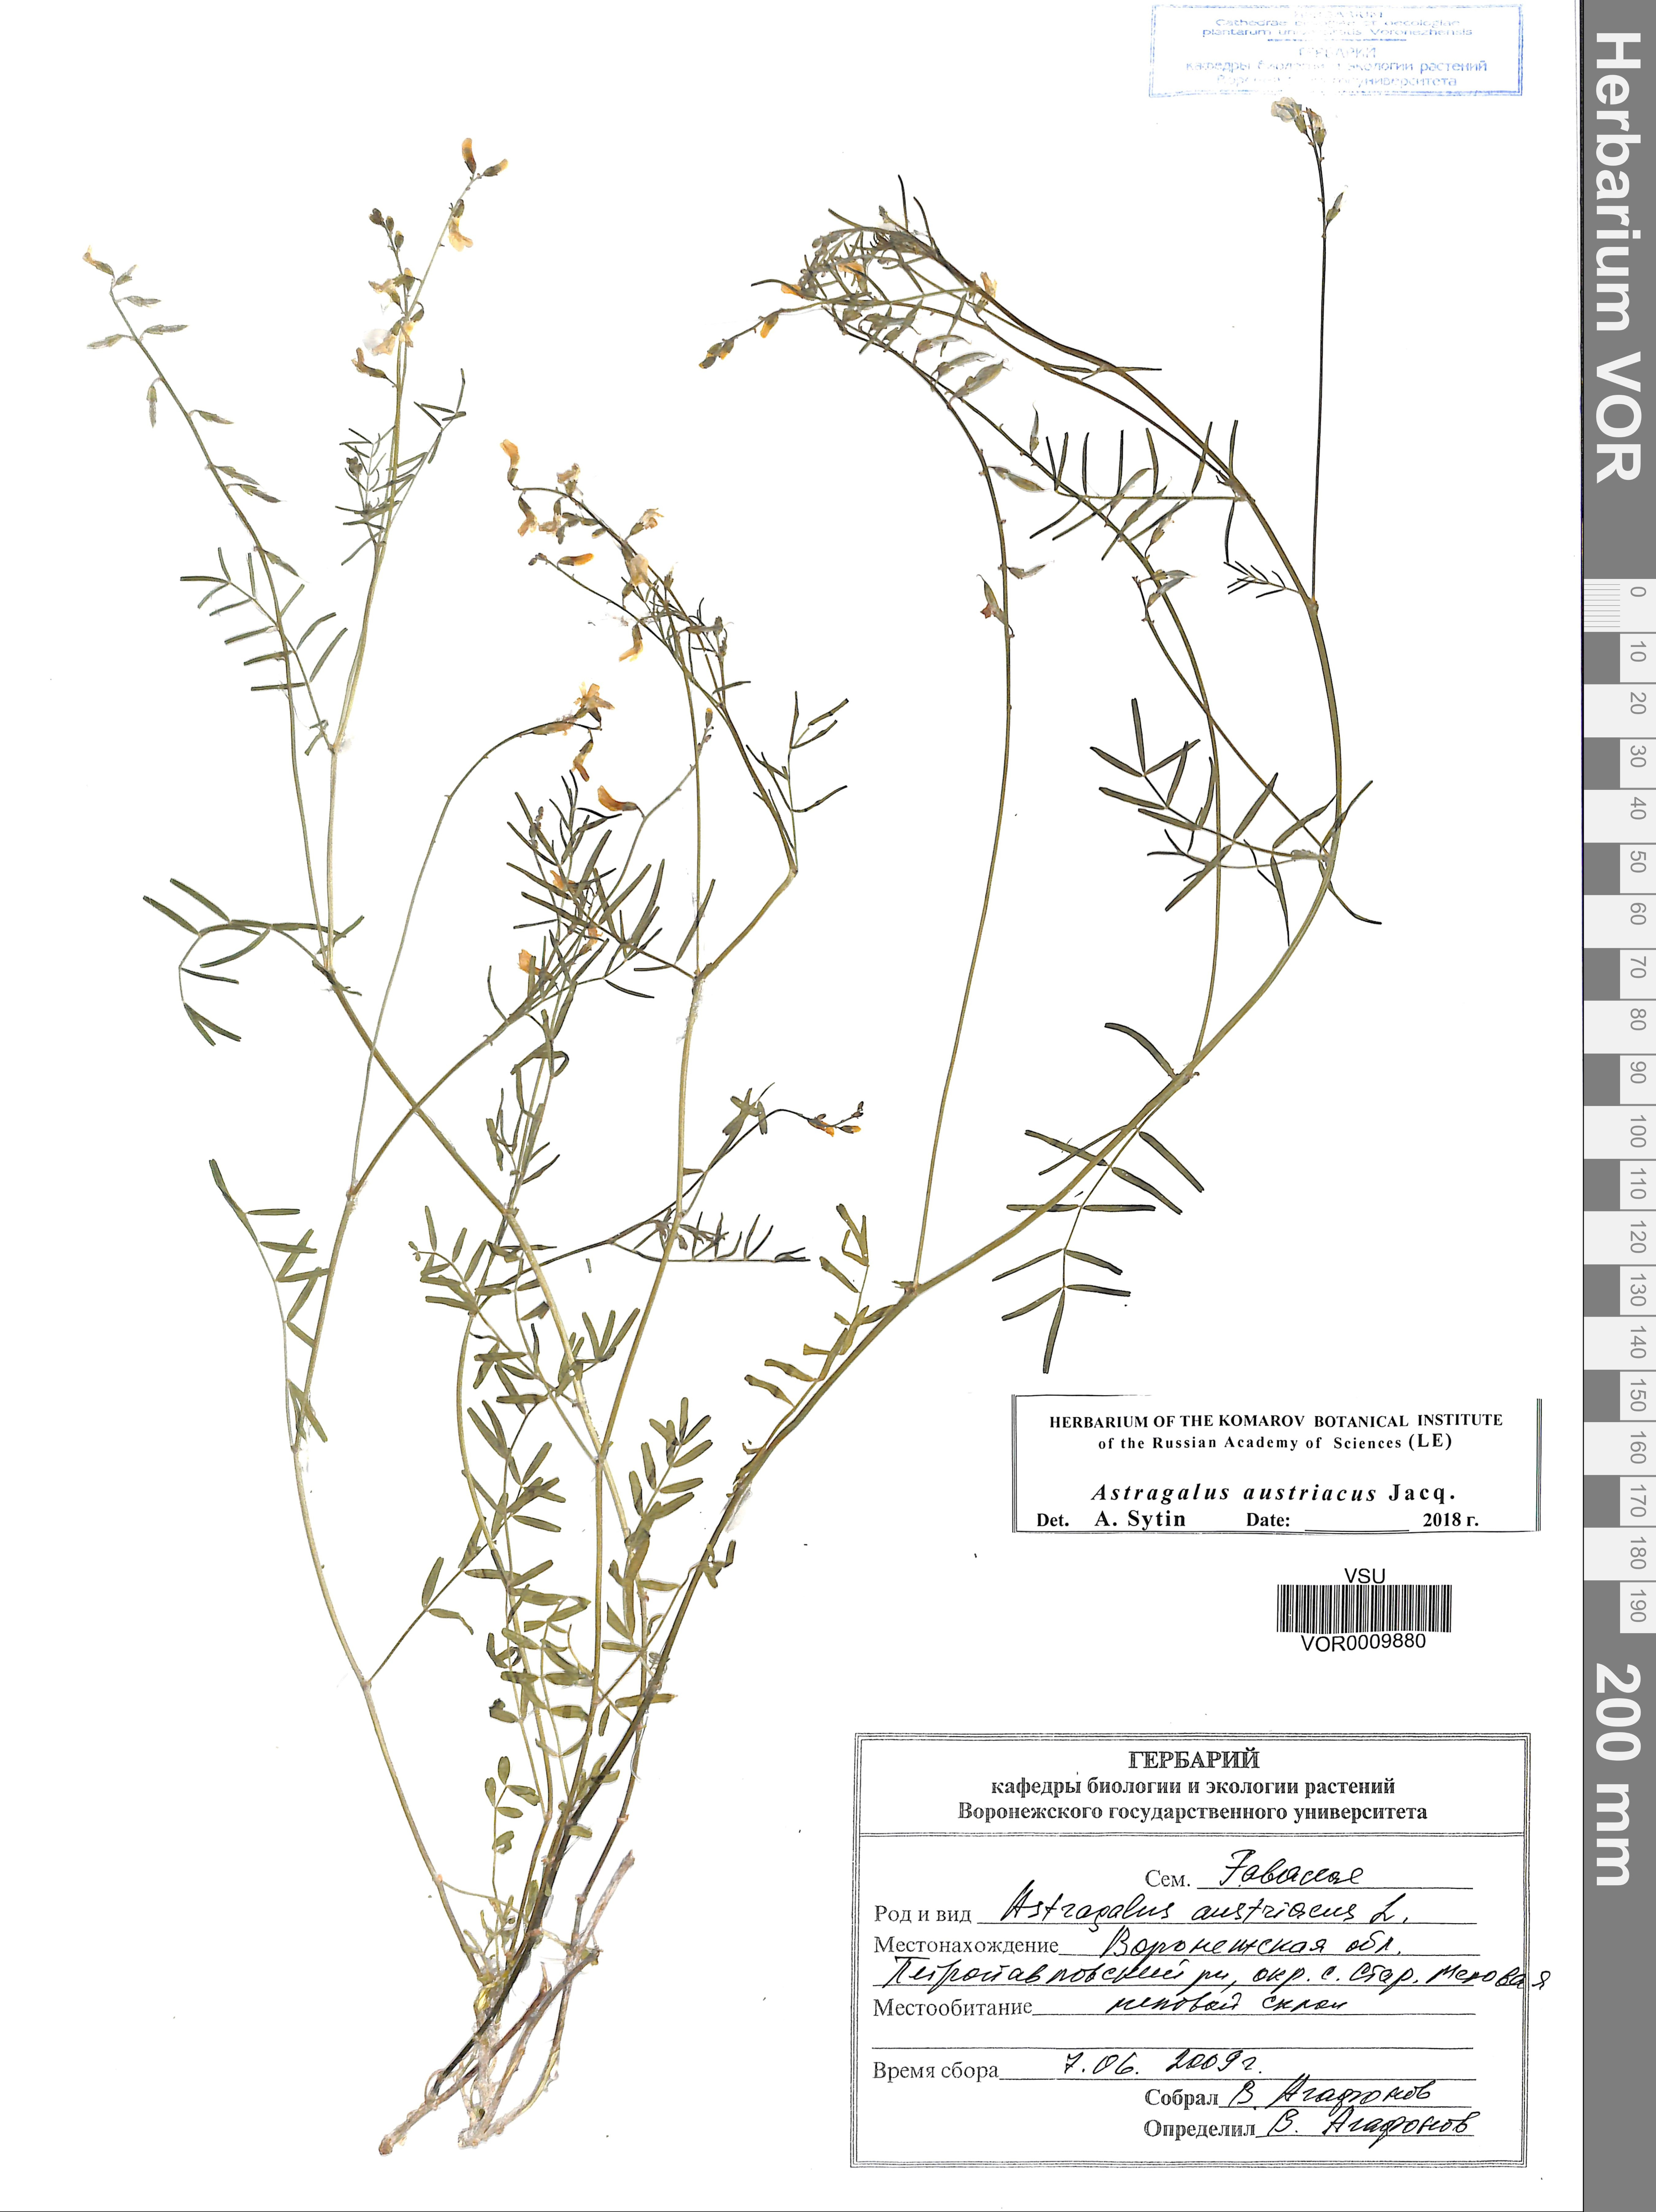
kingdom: Plantae
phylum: Tracheophyta
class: Magnoliopsida
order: Fabales
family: Fabaceae
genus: Astragalus
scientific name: Astragalus austriacus
